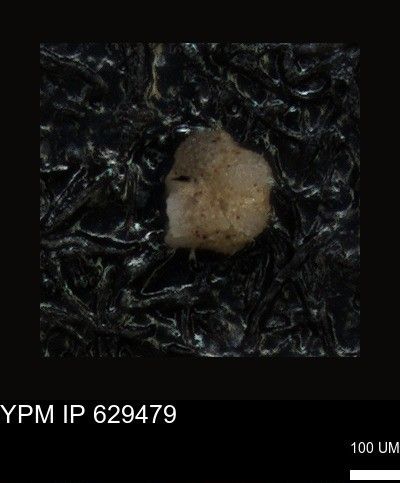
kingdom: Chromista
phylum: Foraminifera
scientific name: Foraminifera
